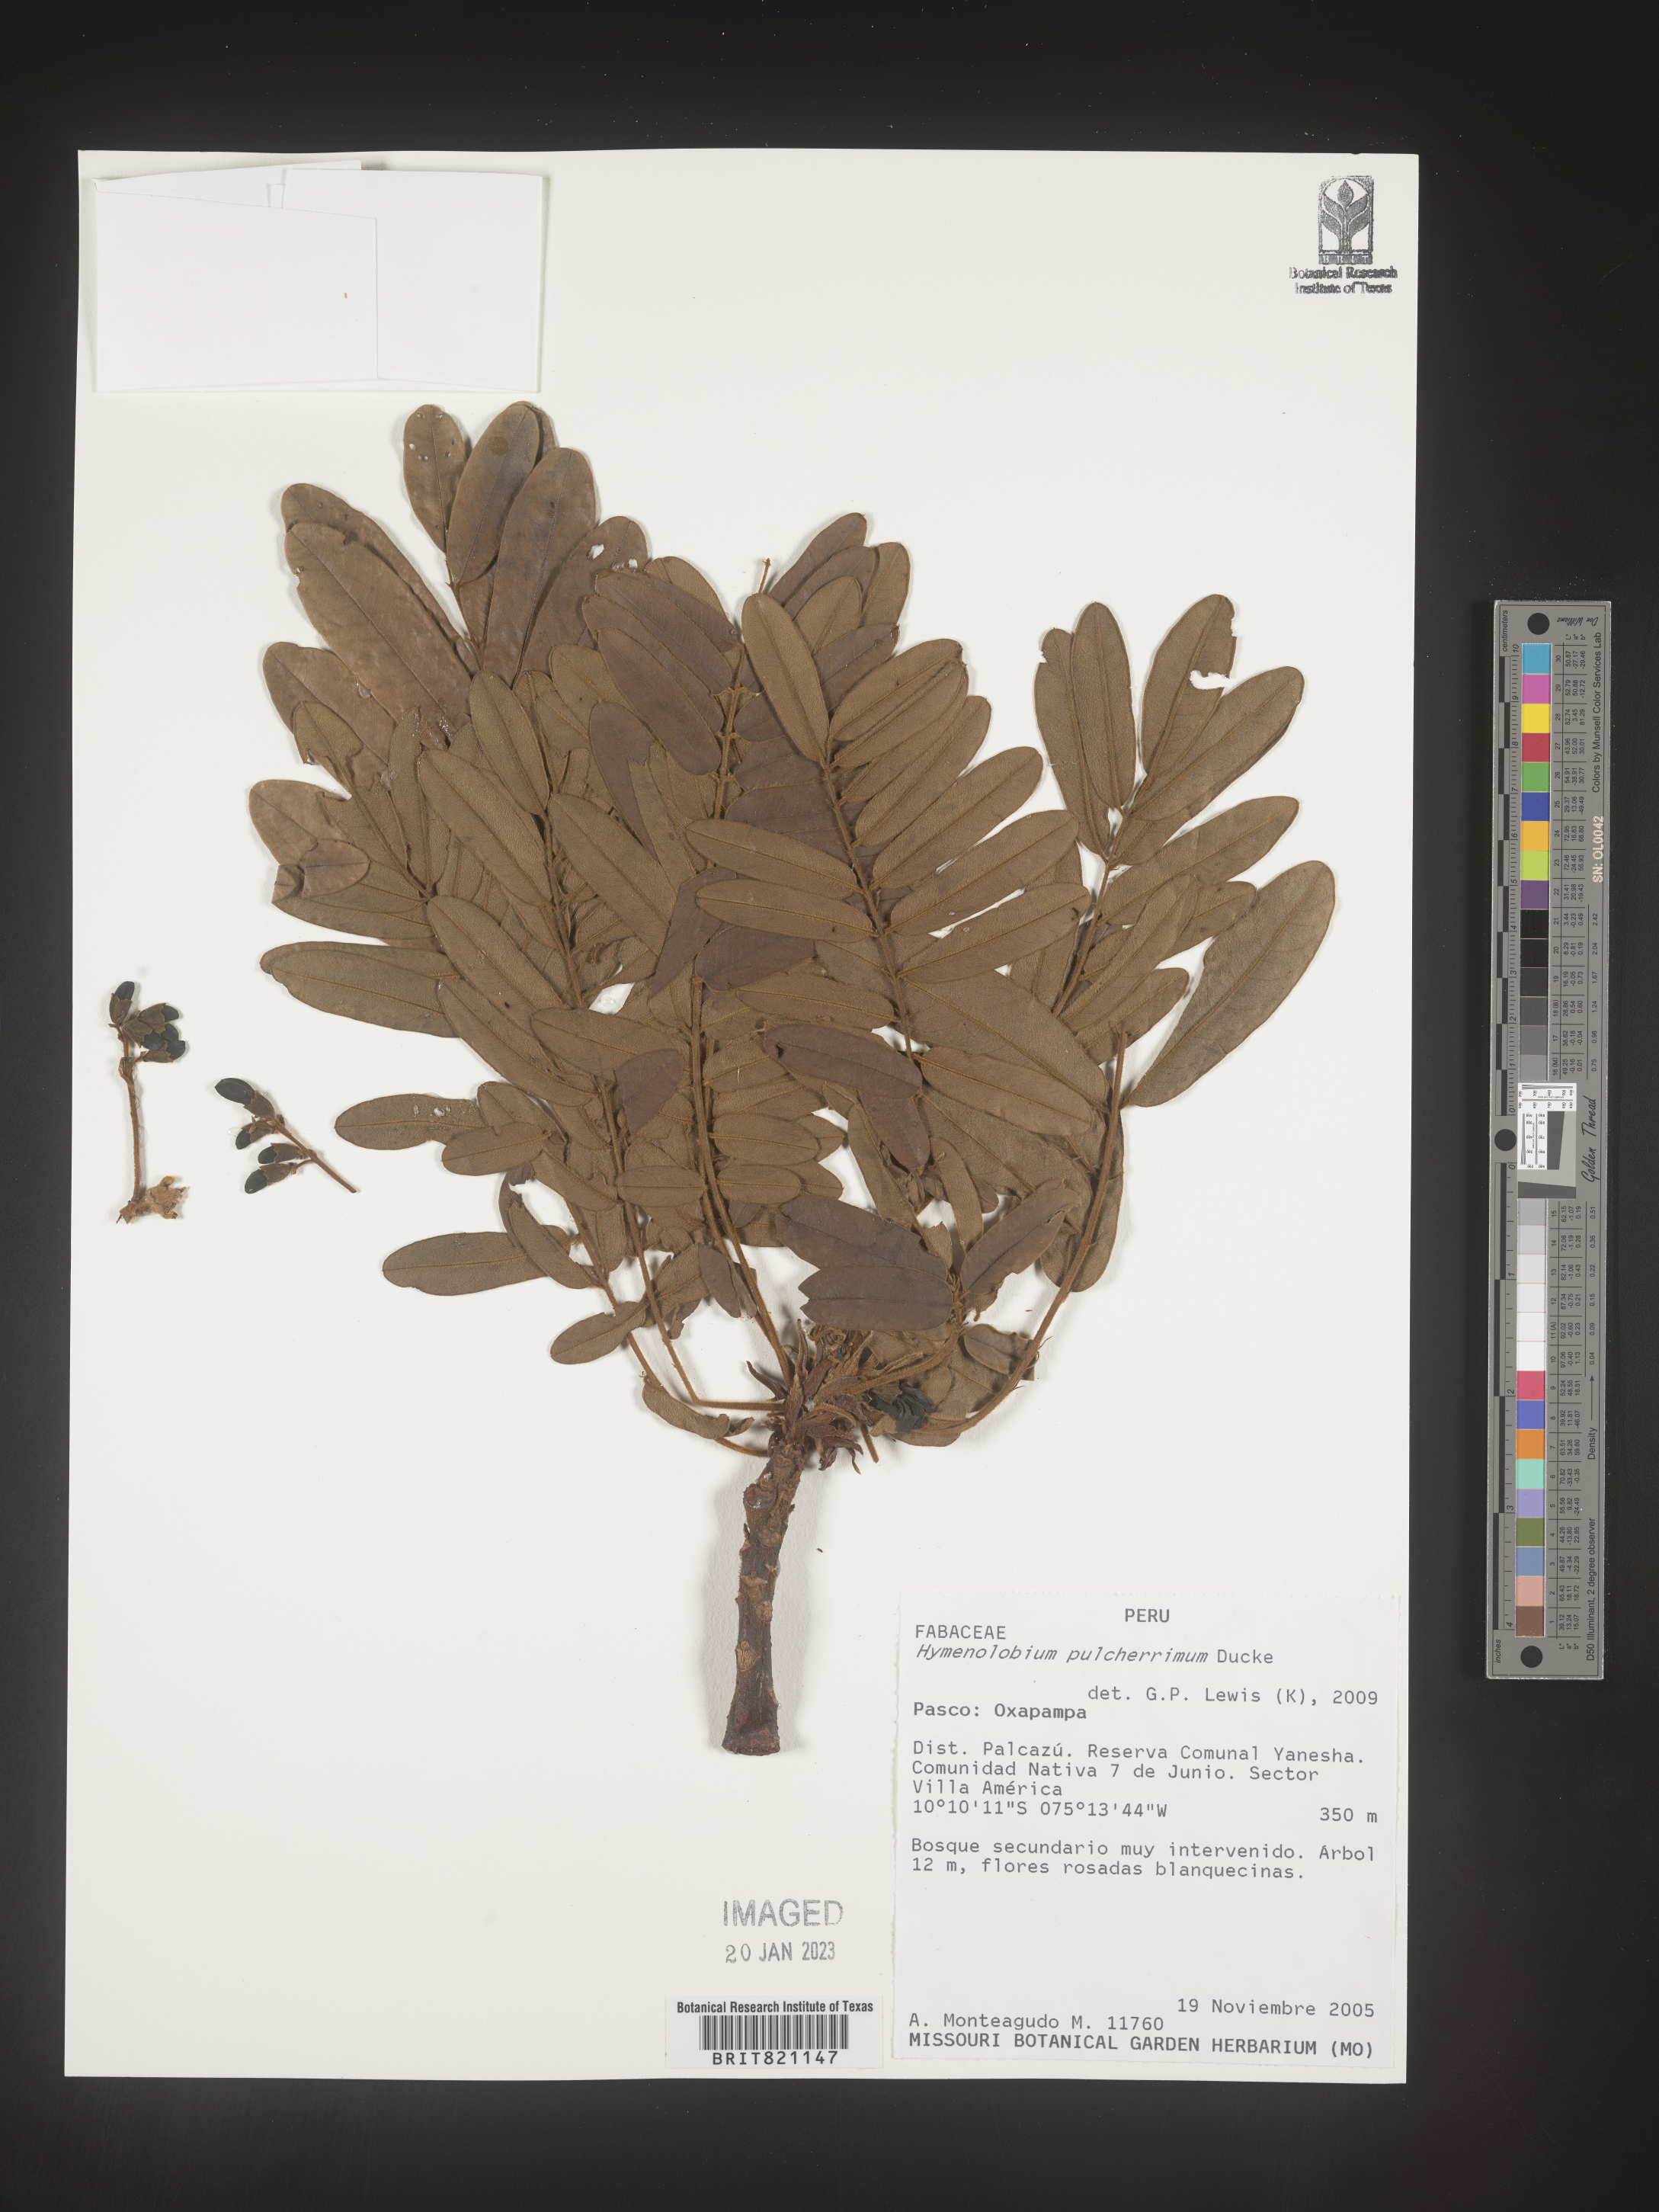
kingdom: Plantae
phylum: Tracheophyta
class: Magnoliopsida
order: Fabales
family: Fabaceae
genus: Hymenolobium
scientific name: Hymenolobium
